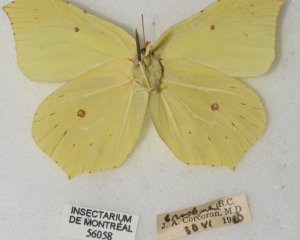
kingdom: Animalia
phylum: Arthropoda
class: Insecta
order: Lepidoptera
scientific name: Lepidoptera
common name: Butterflies
